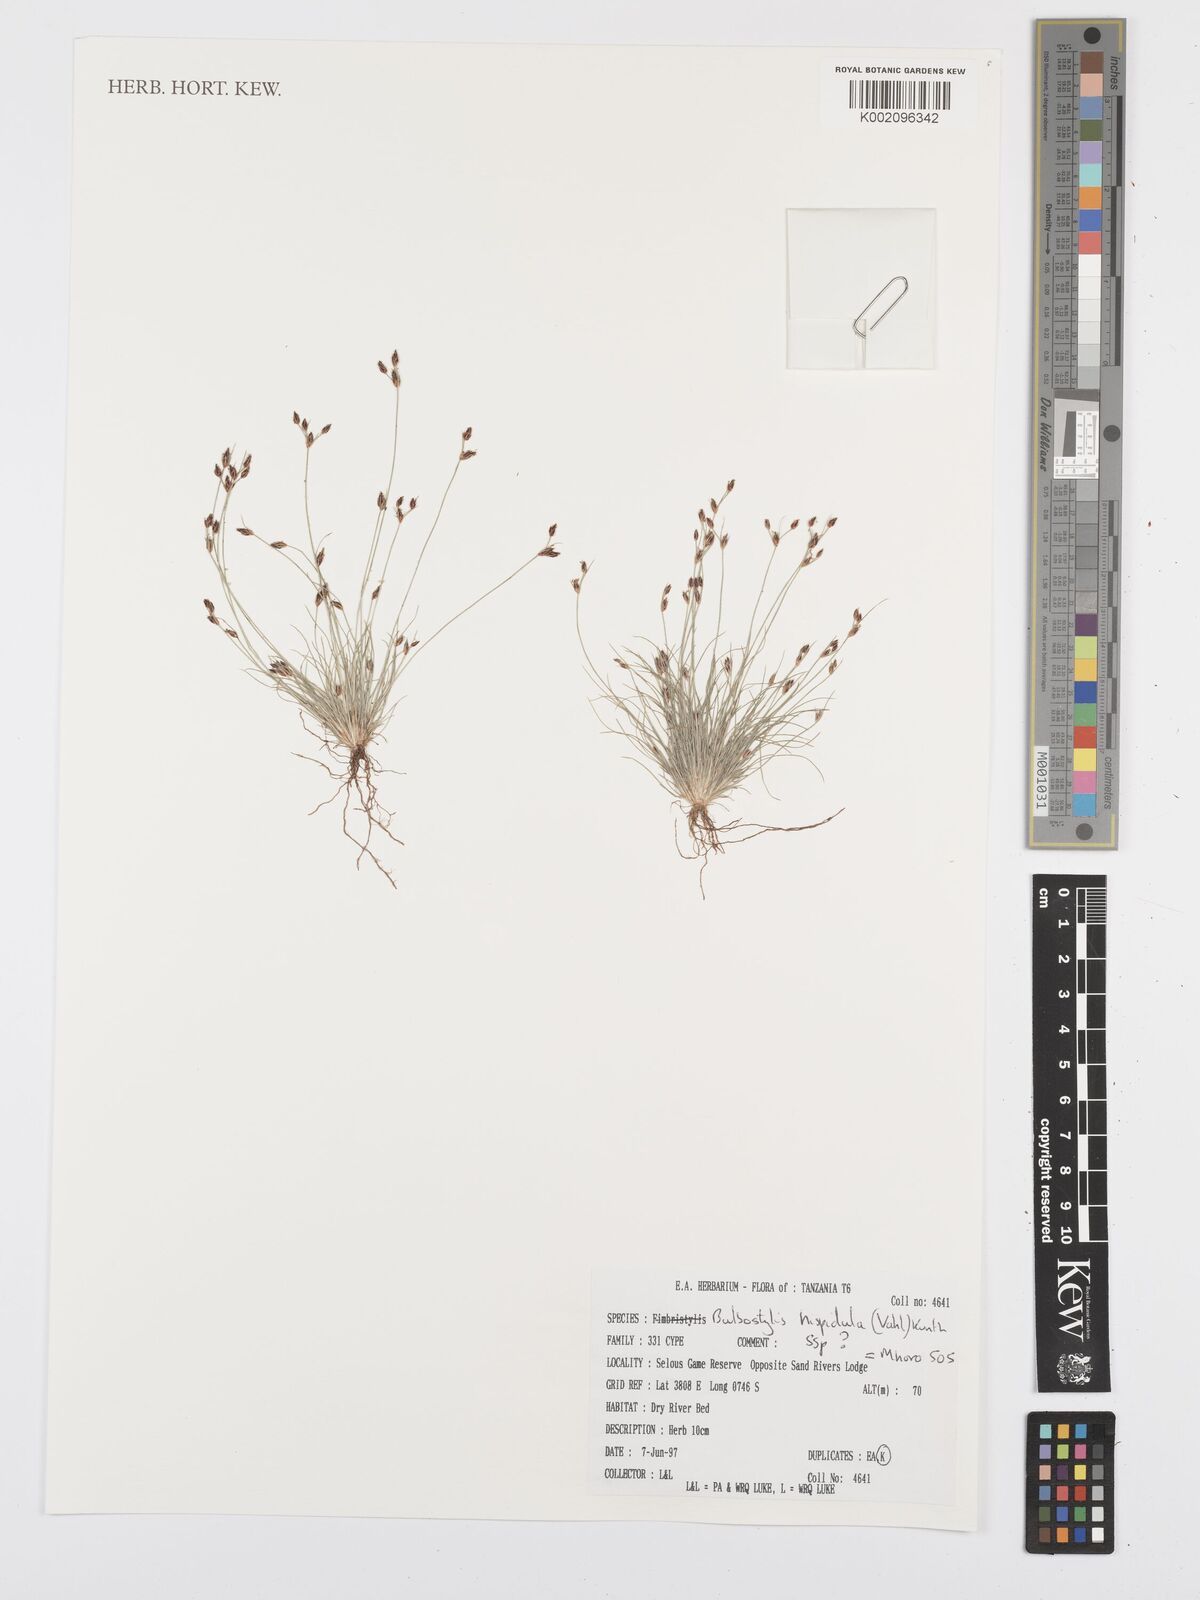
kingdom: Plantae
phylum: Tracheophyta
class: Liliopsida
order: Poales
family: Cyperaceae
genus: Bulbostylis
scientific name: Bulbostylis hispidula
